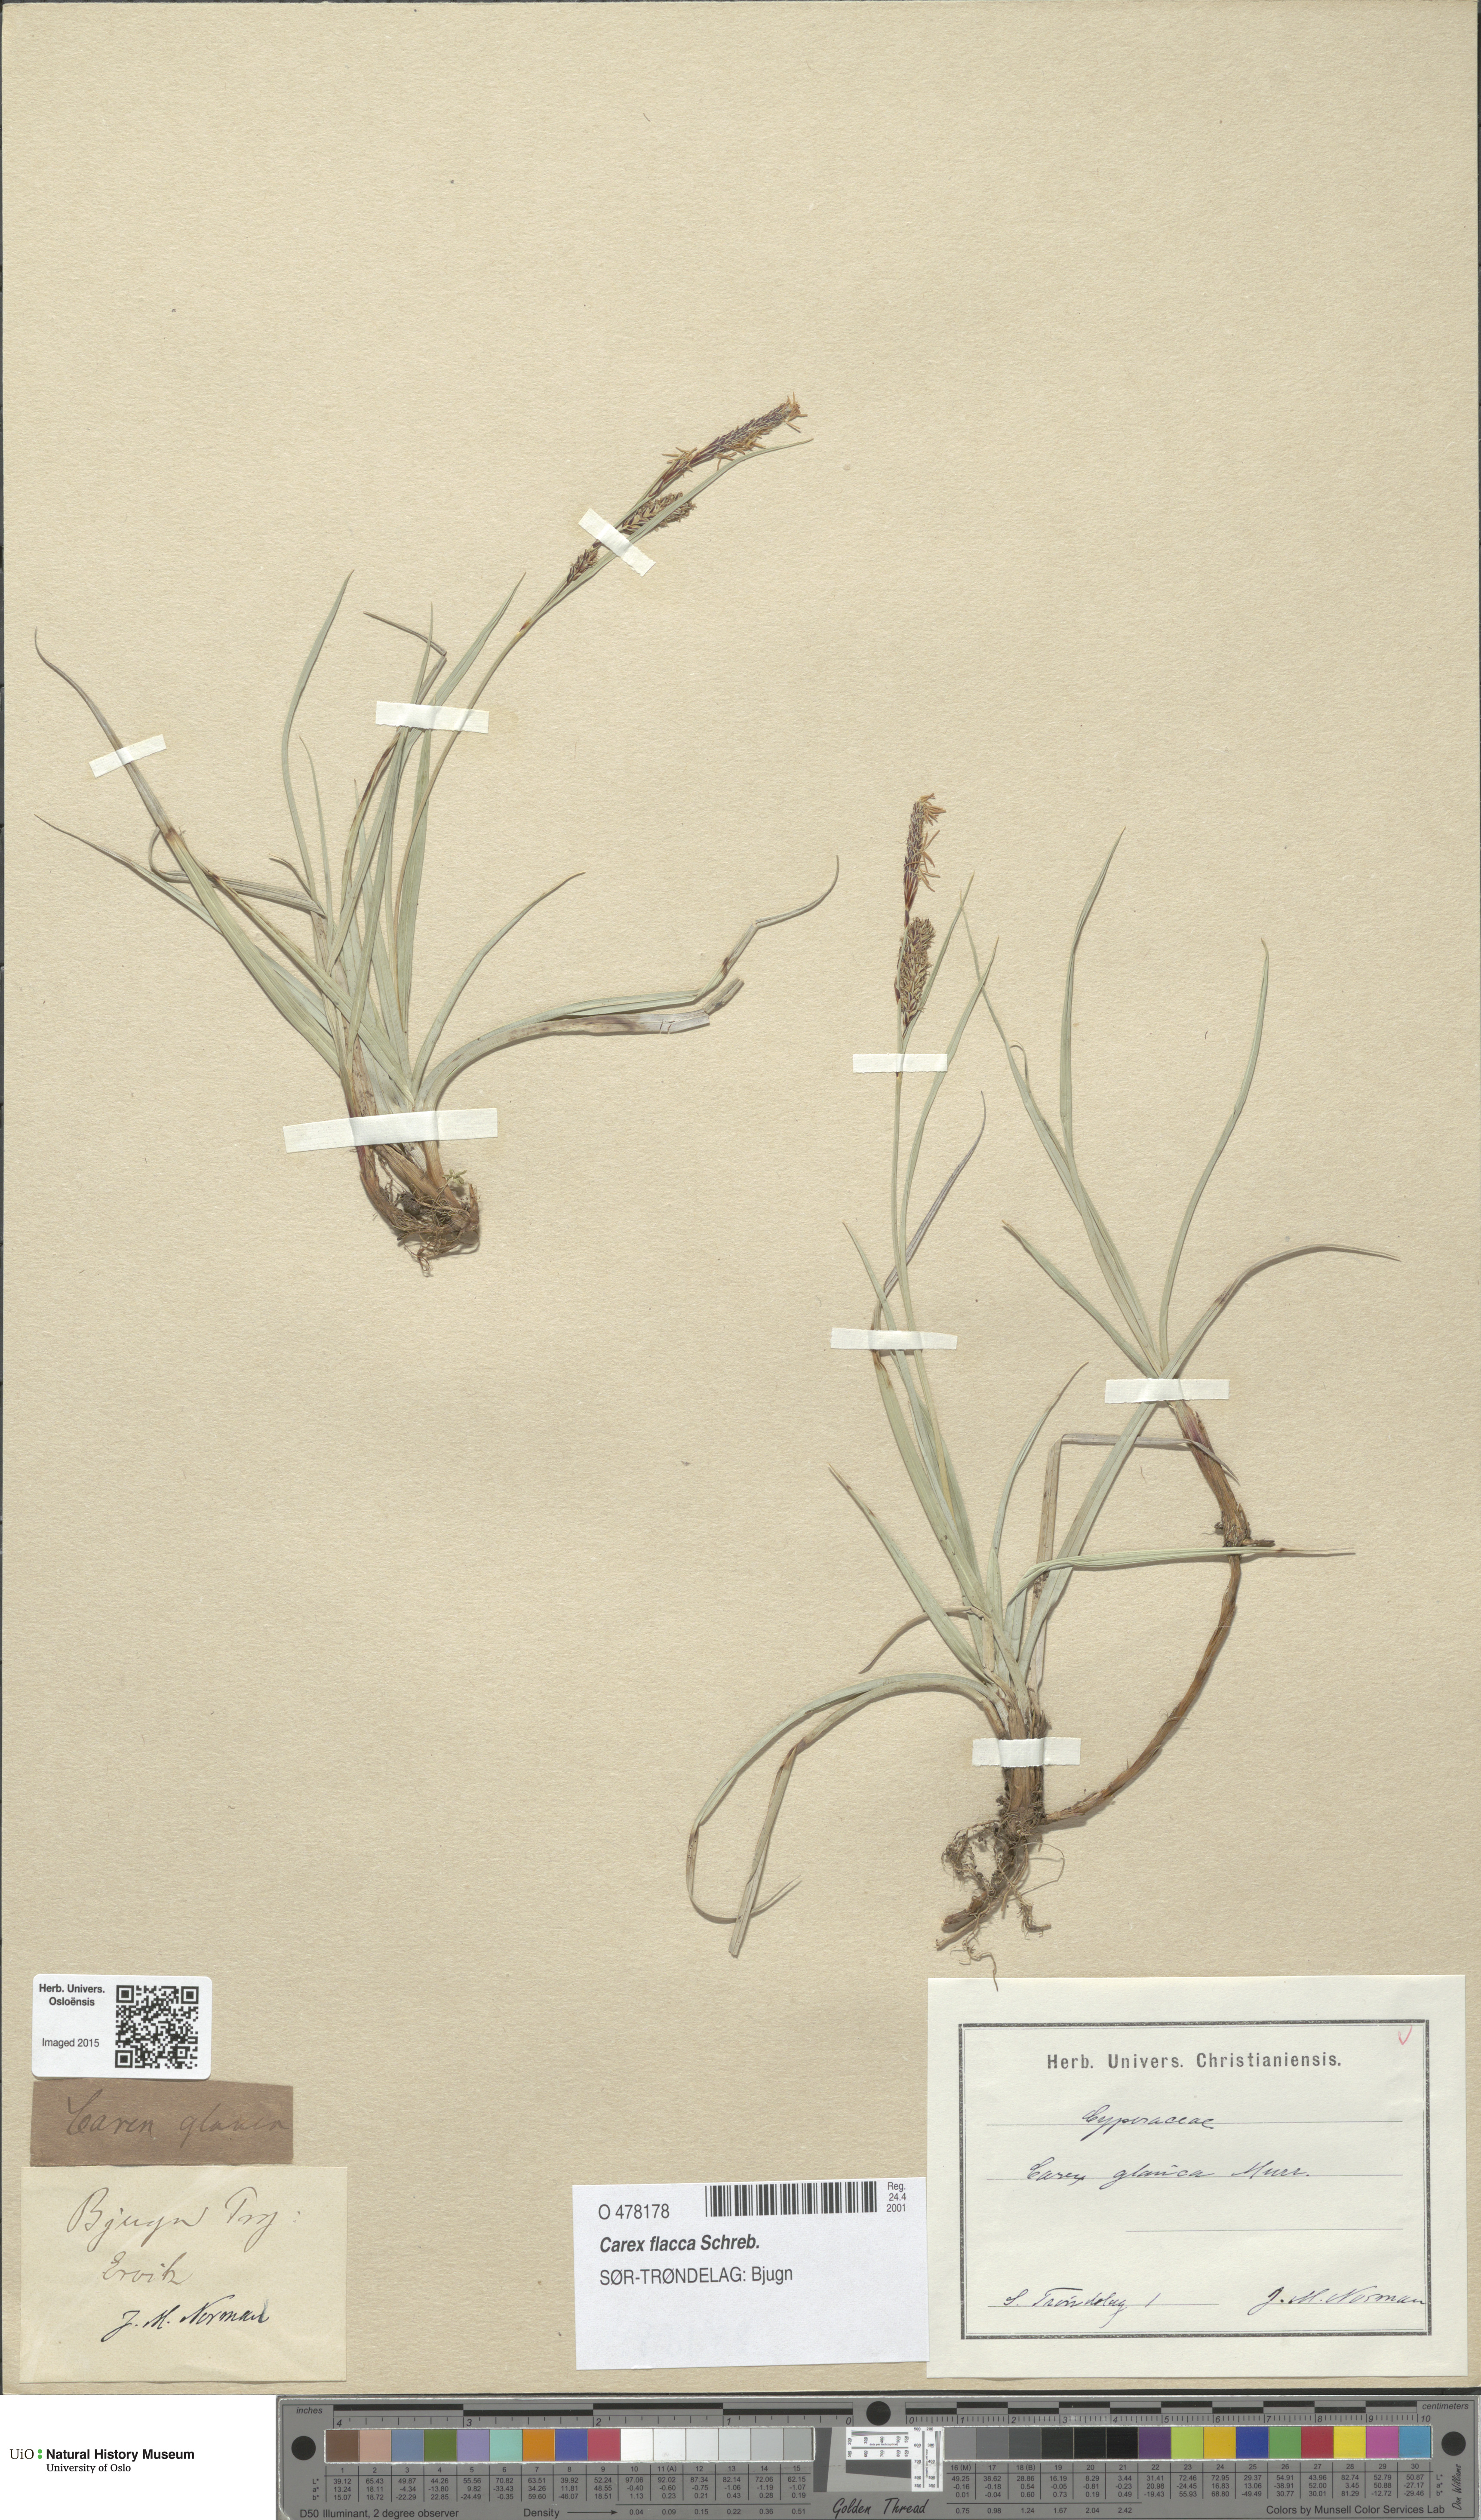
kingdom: Plantae
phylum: Tracheophyta
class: Liliopsida
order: Poales
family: Cyperaceae
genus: Carex
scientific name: Carex flacca
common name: Glaucous sedge
